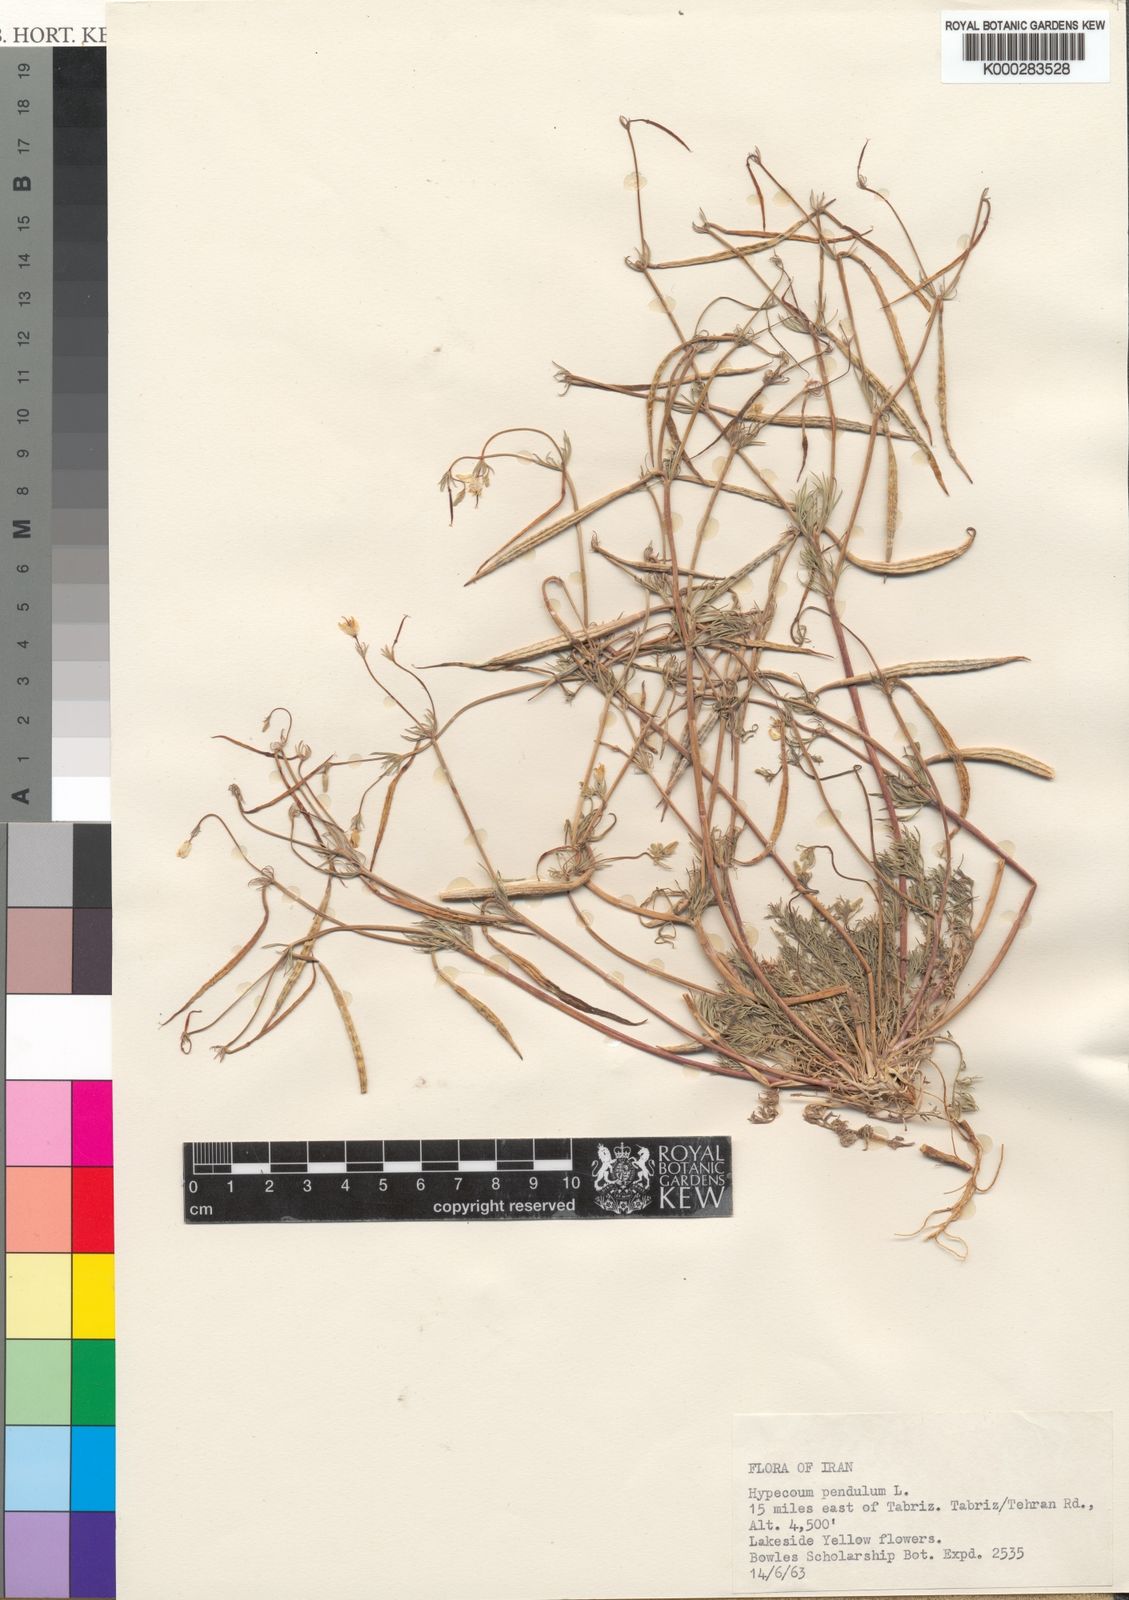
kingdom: Plantae
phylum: Tracheophyta
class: Magnoliopsida
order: Ranunculales
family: Papaveraceae
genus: Hypecoum
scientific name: Hypecoum pendulum
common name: Nodding hypecoum
